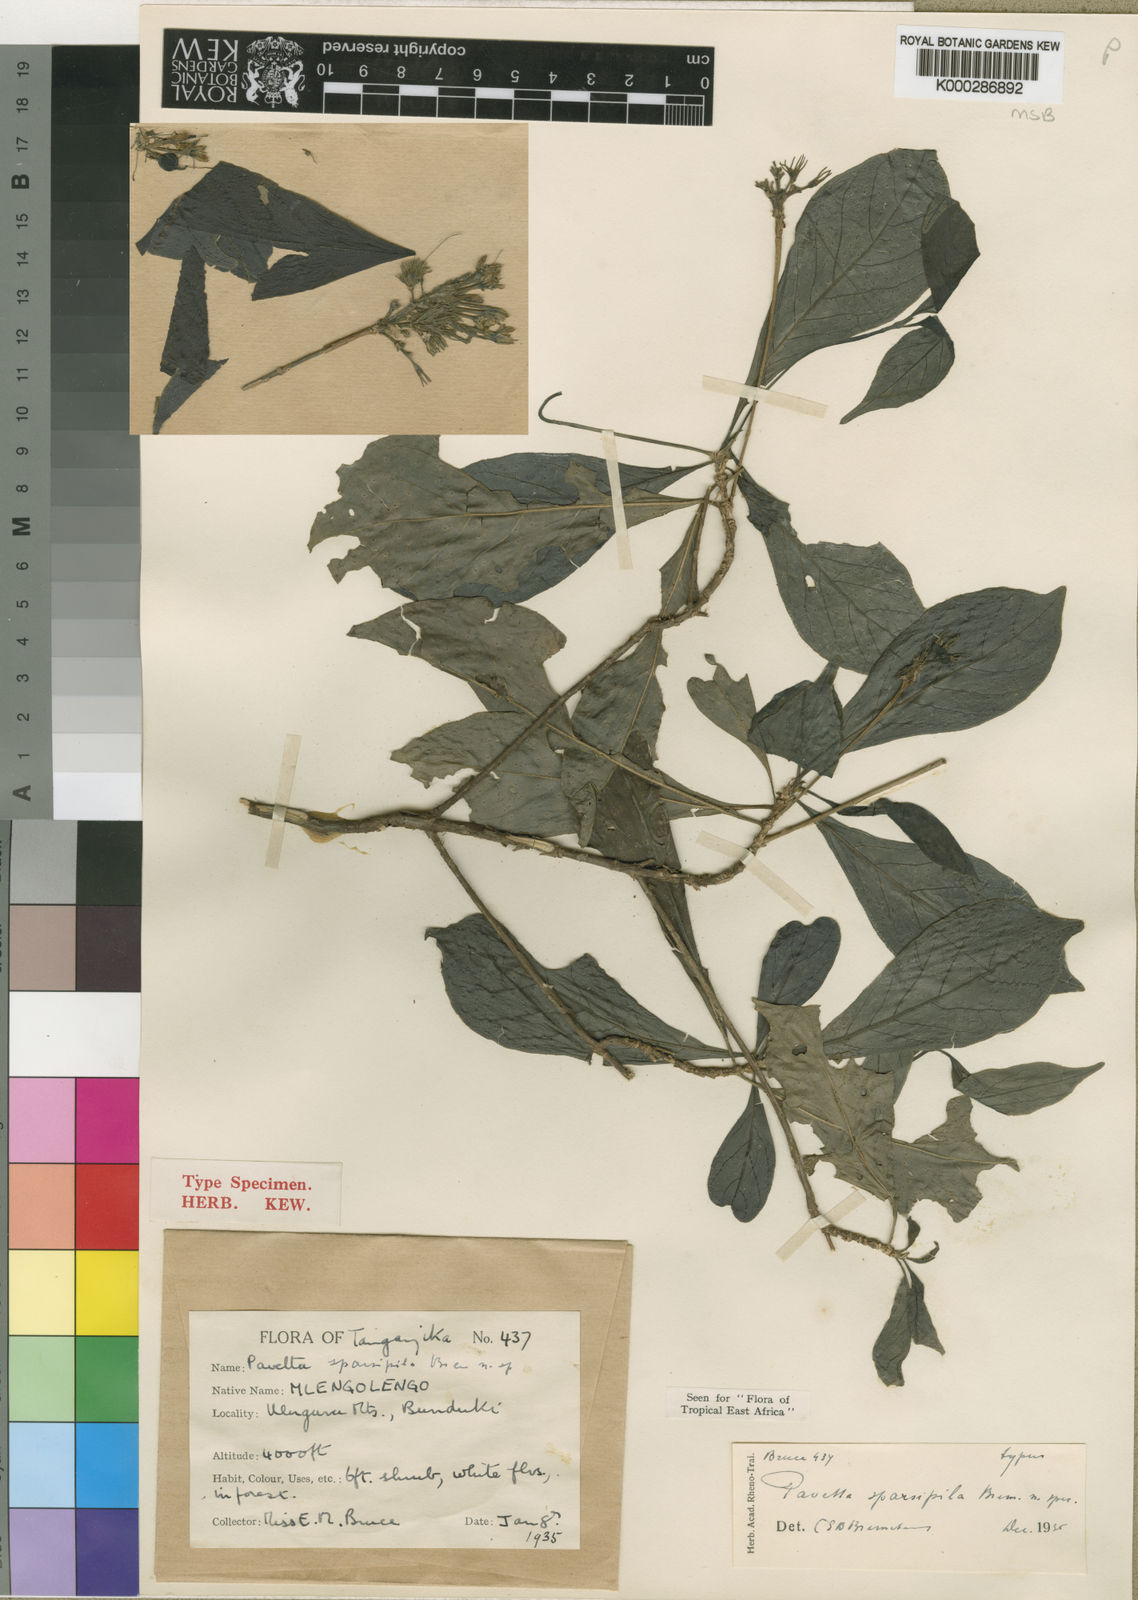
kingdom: Plantae
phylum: Tracheophyta
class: Magnoliopsida
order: Gentianales
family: Rubiaceae
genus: Pavetta
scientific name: Pavetta sparsipila
